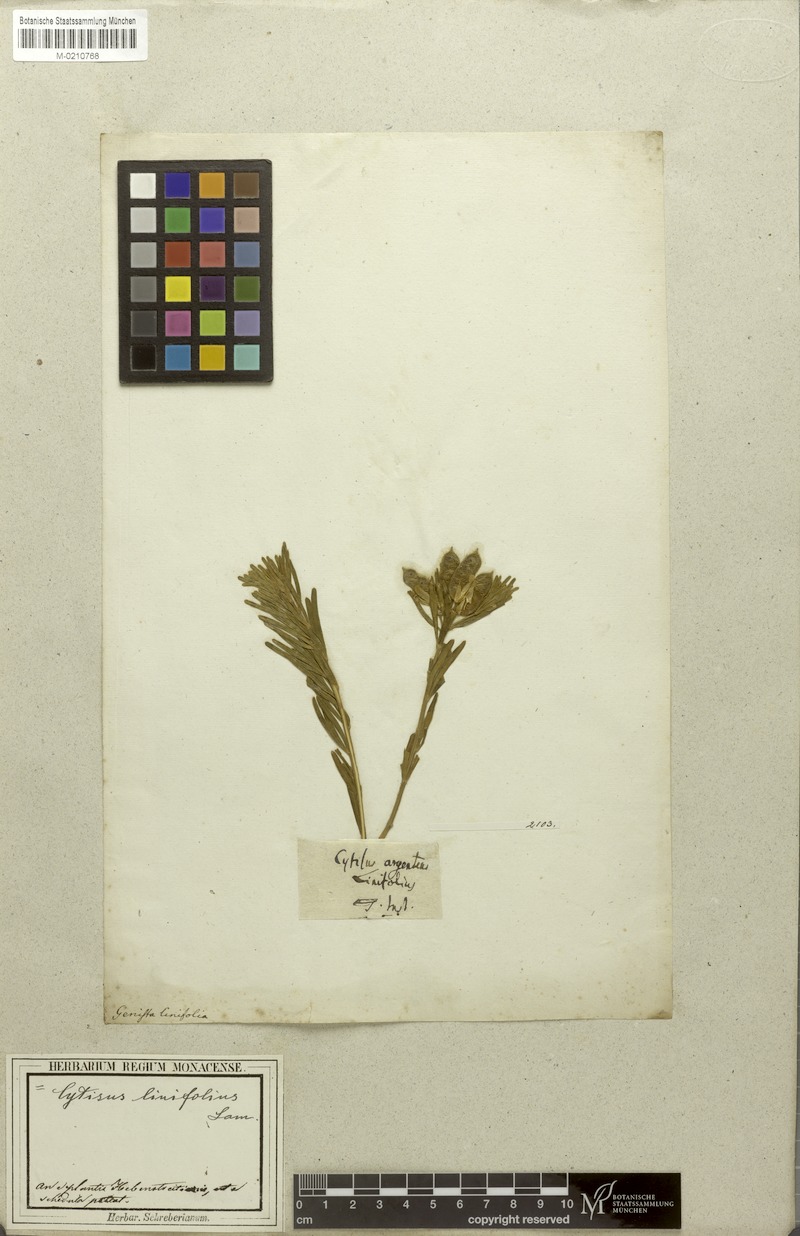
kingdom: Plantae
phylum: Tracheophyta
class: Magnoliopsida
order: Fabales
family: Fabaceae
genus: Genista
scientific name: Genista linifolia
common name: Mediterranean broom
